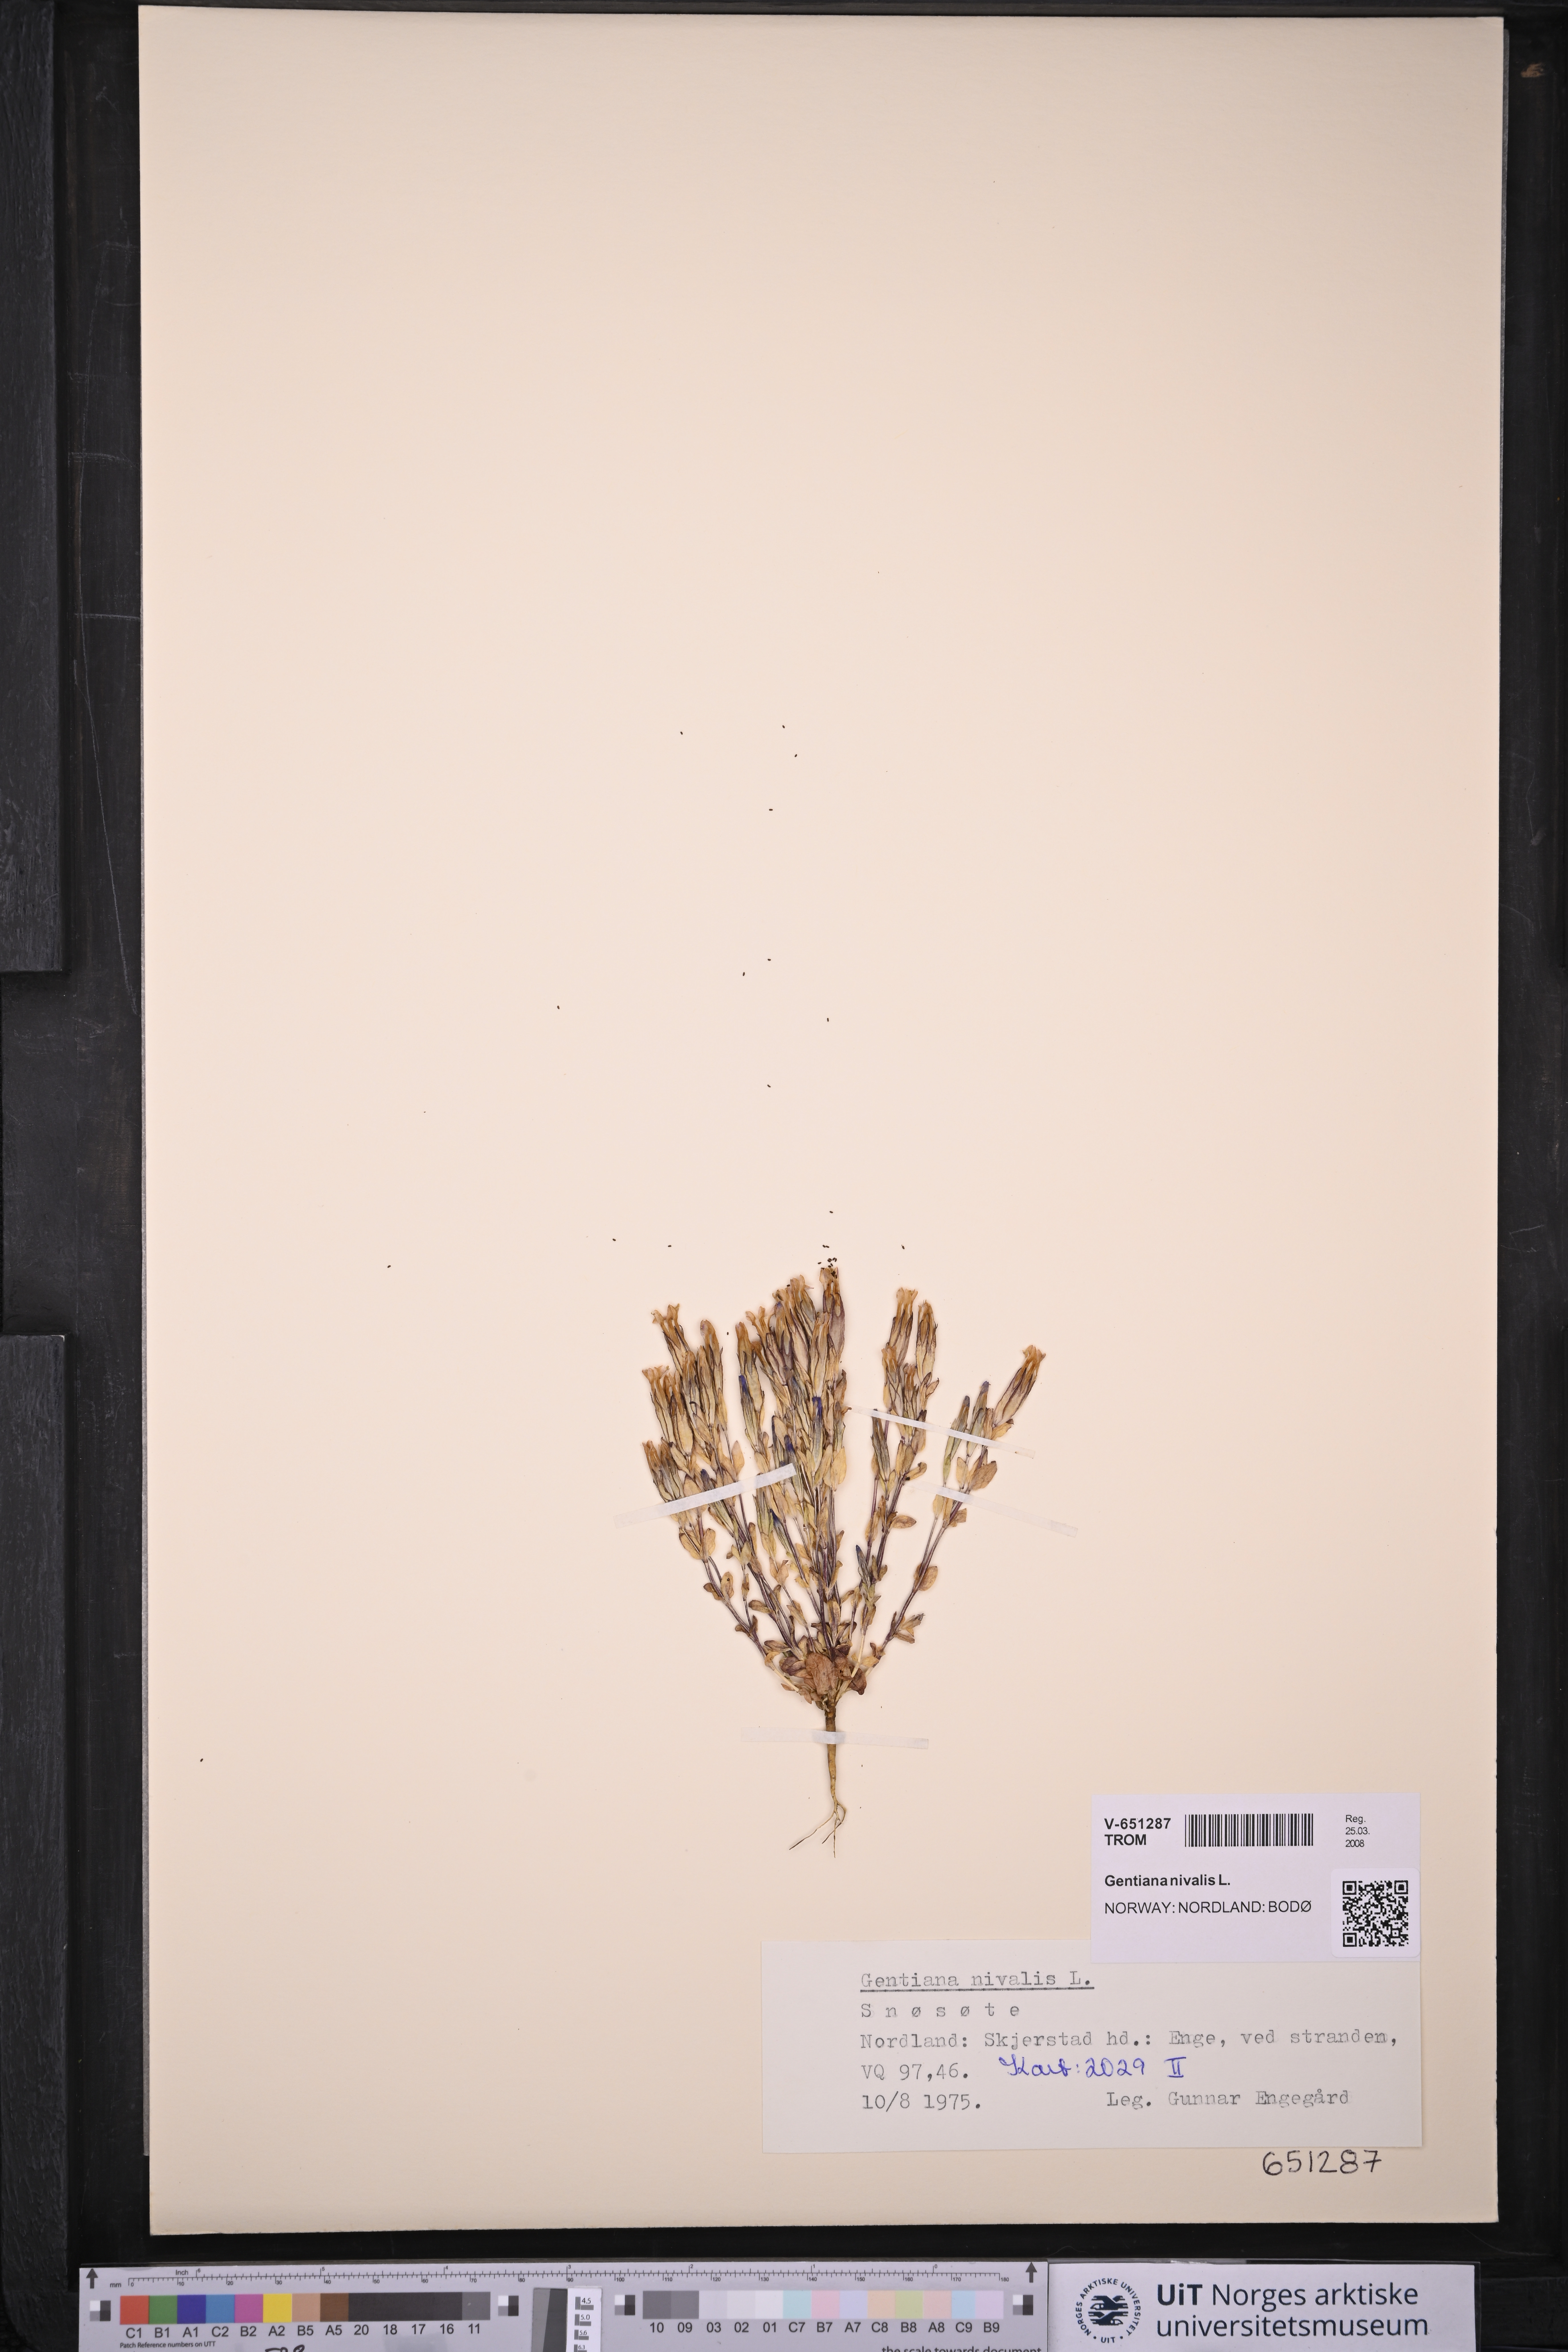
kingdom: Plantae
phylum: Tracheophyta
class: Magnoliopsida
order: Gentianales
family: Gentianaceae
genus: Gentiana
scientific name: Gentiana nivalis
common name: Alpine gentian
